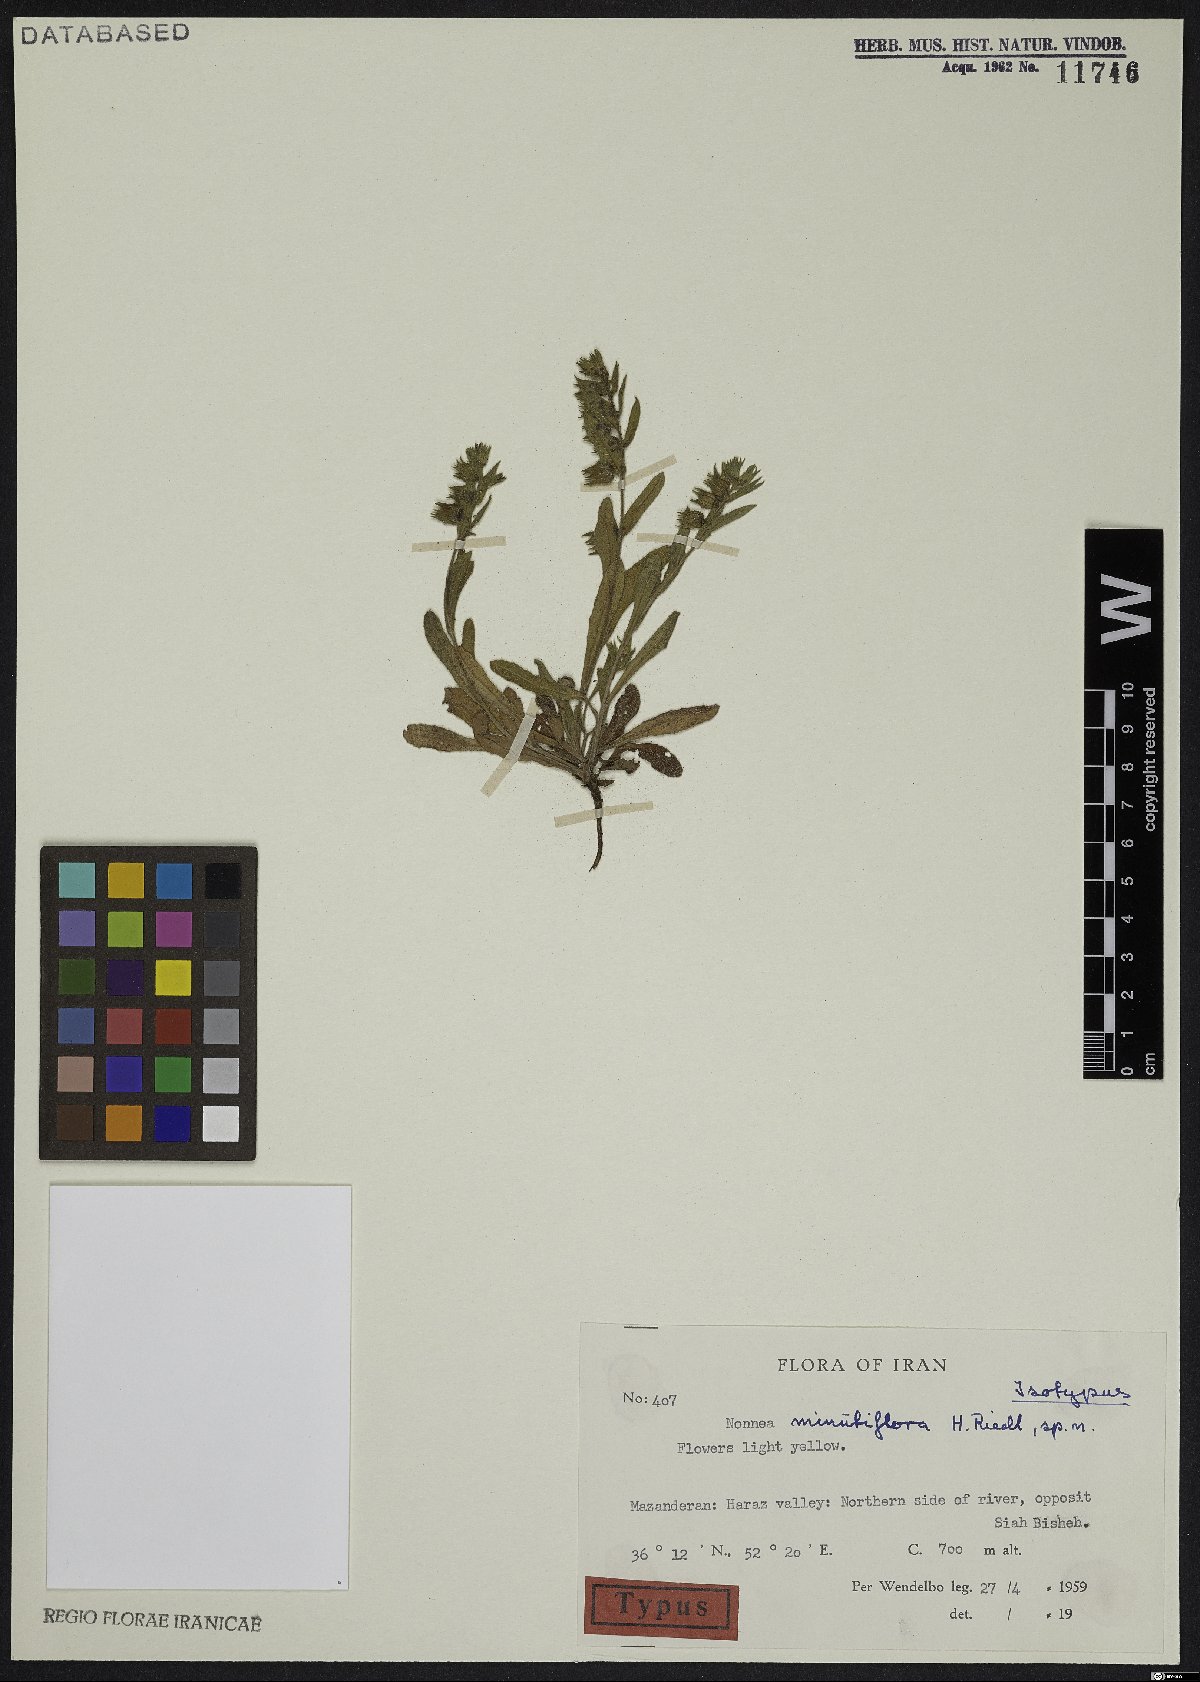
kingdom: Plantae
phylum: Tracheophyta
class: Magnoliopsida
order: Boraginales
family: Boraginaceae
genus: Nonea
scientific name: Nonea minutiflora
